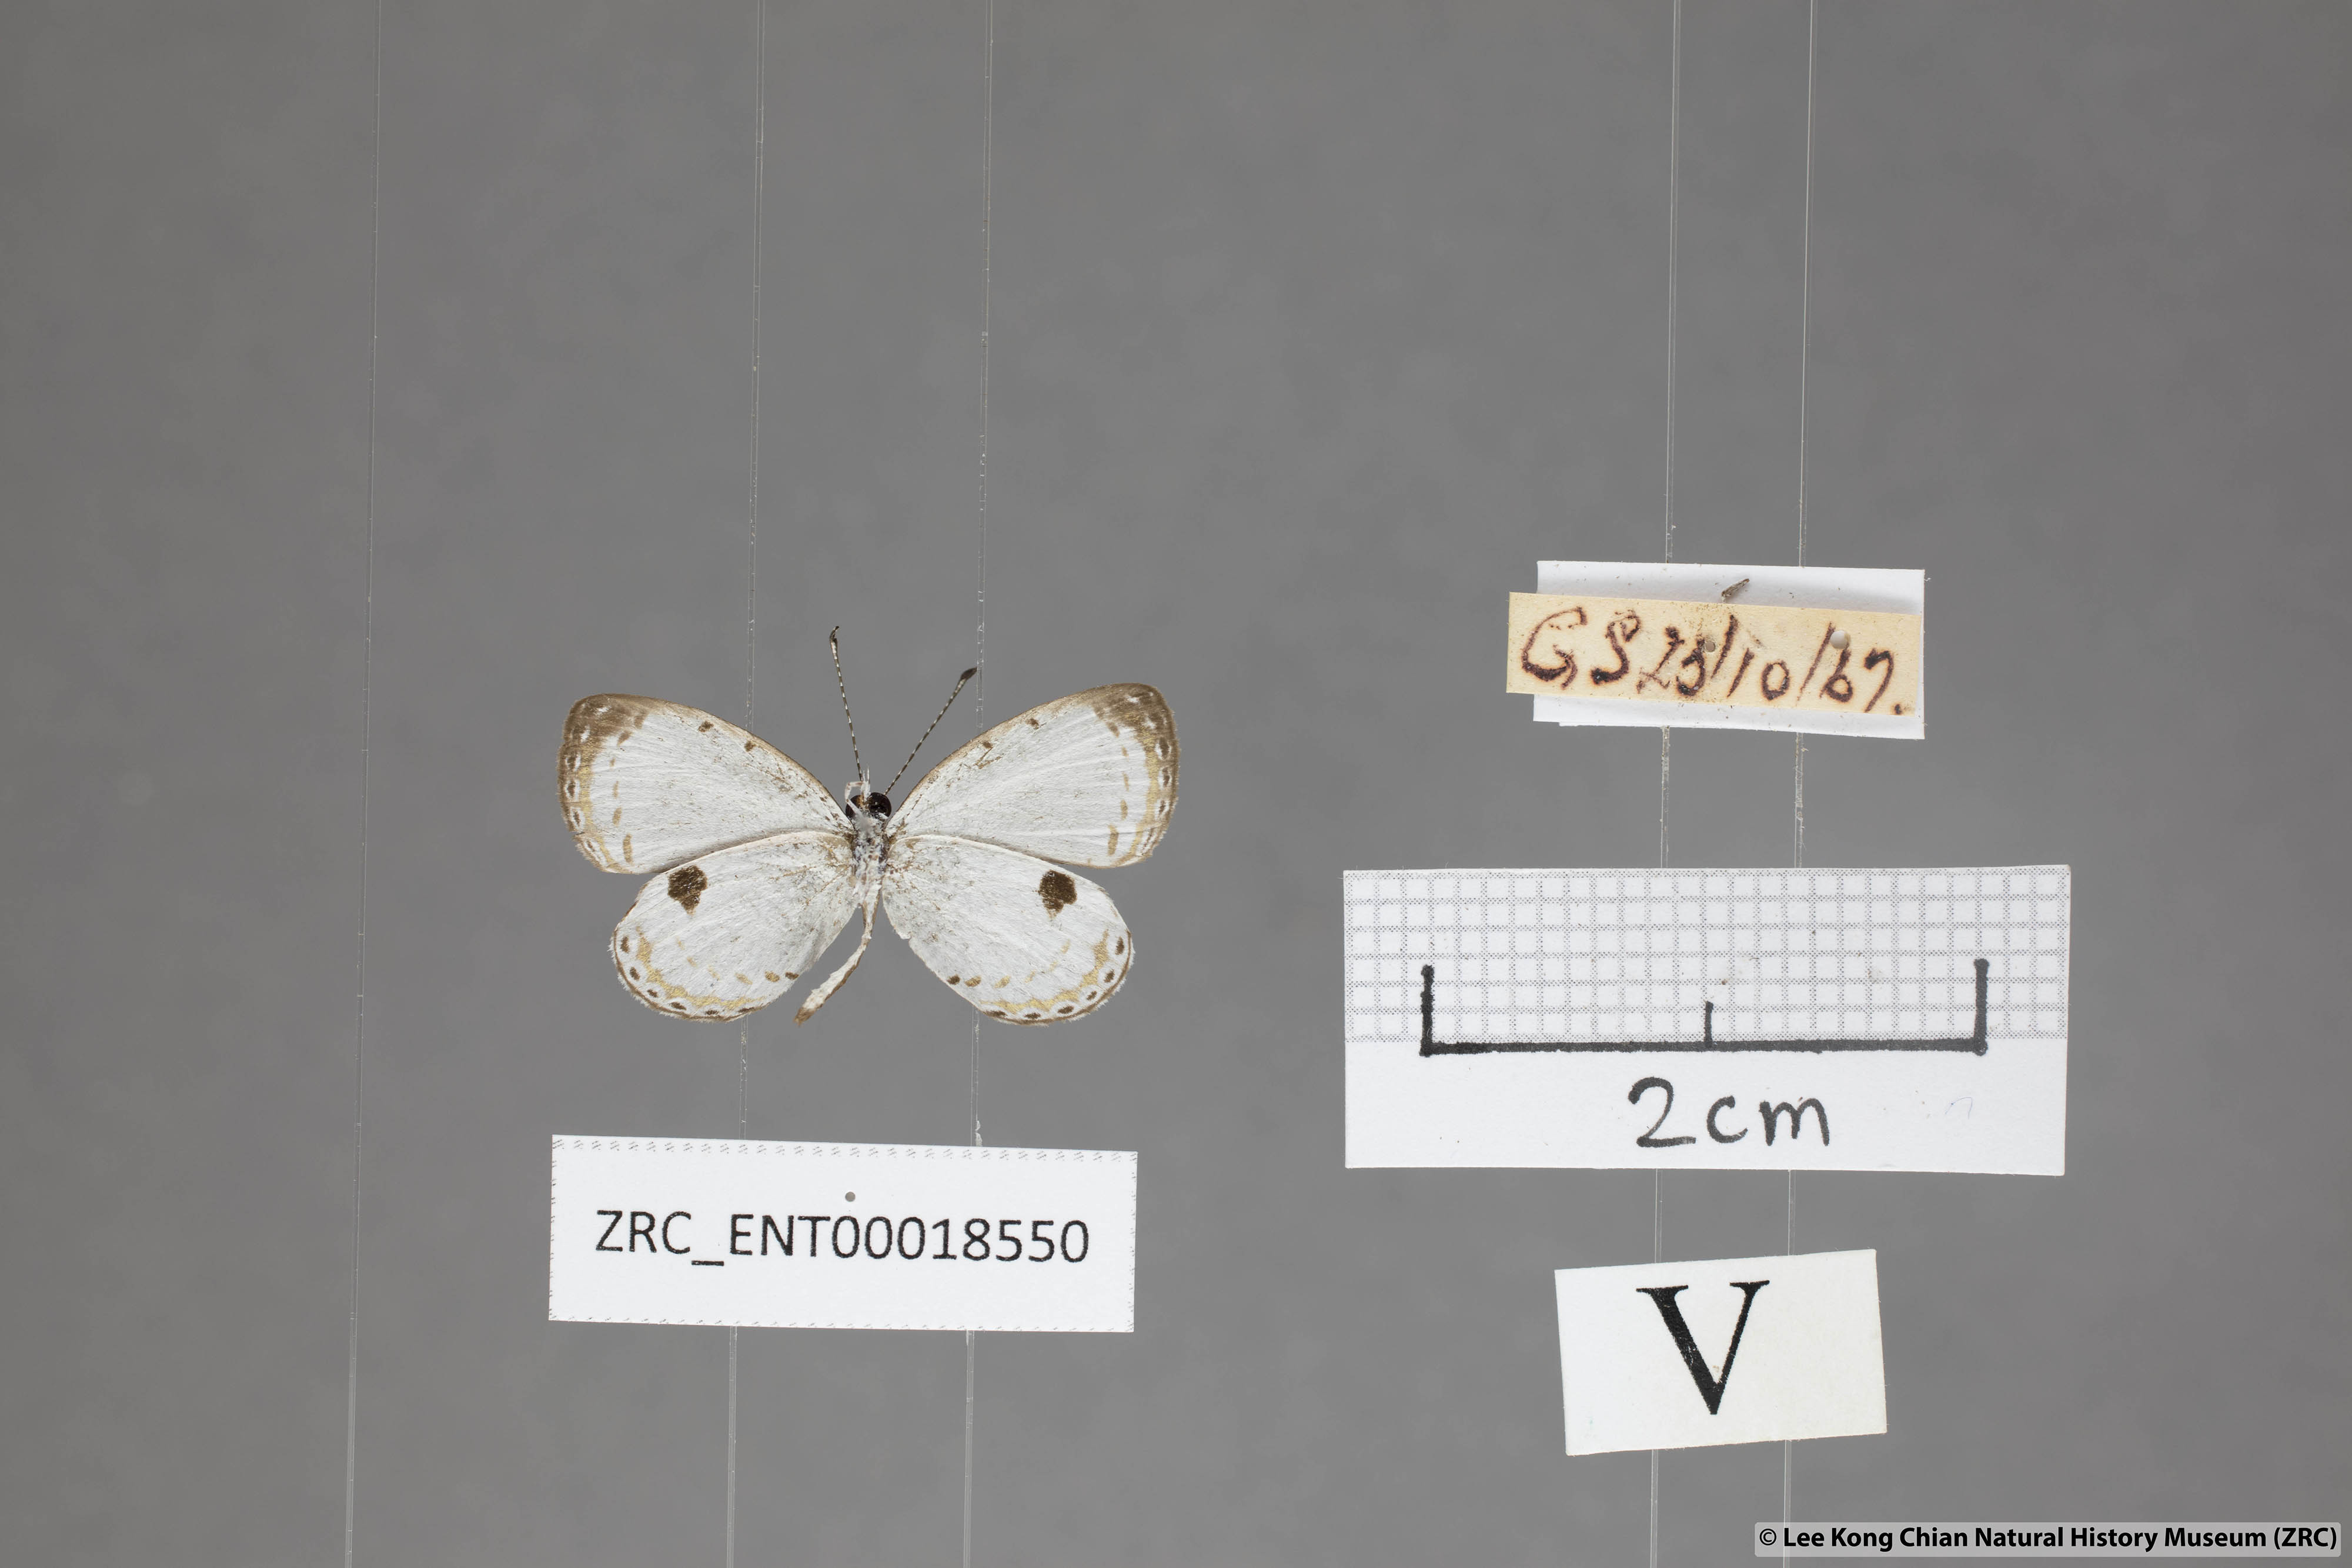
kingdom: Animalia
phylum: Arthropoda
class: Insecta
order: Lepidoptera
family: Lycaenidae
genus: Pithecops
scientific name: Pithecops corvus
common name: Forest quaker
